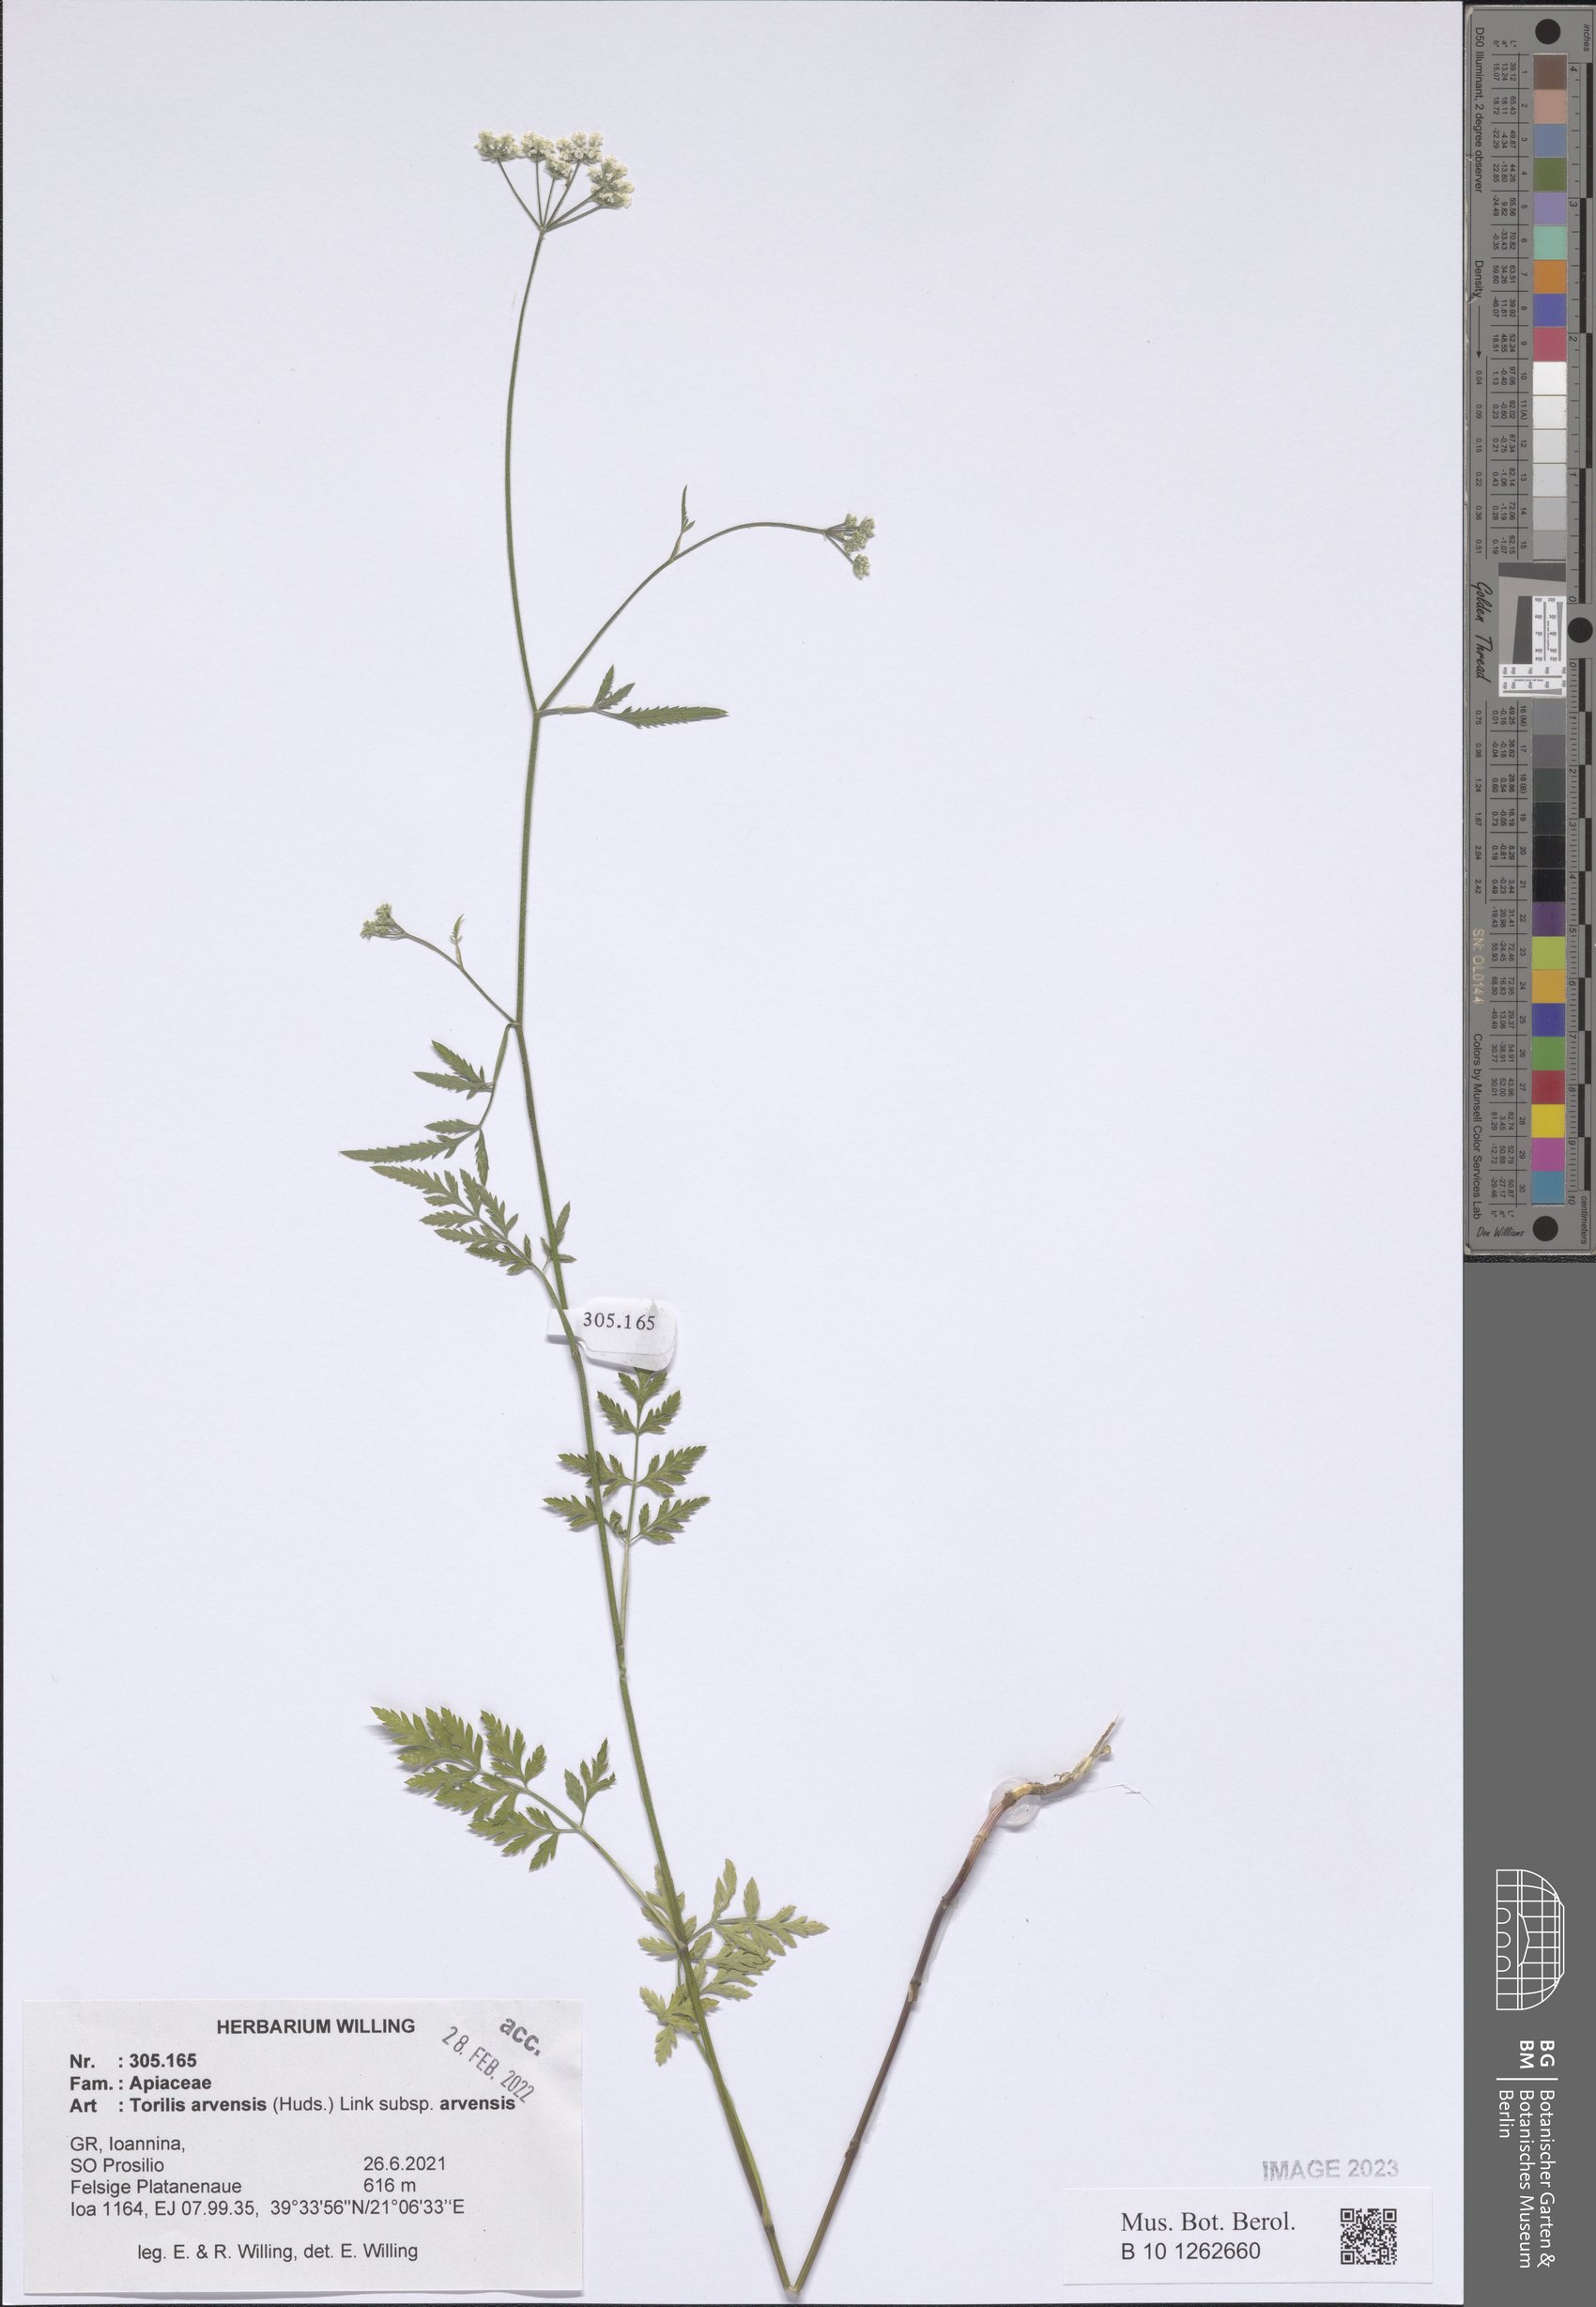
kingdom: Plantae
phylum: Tracheophyta
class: Magnoliopsida
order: Apiales
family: Apiaceae
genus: Torilis
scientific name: Torilis arvensis
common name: Spreading hedge-parsley
